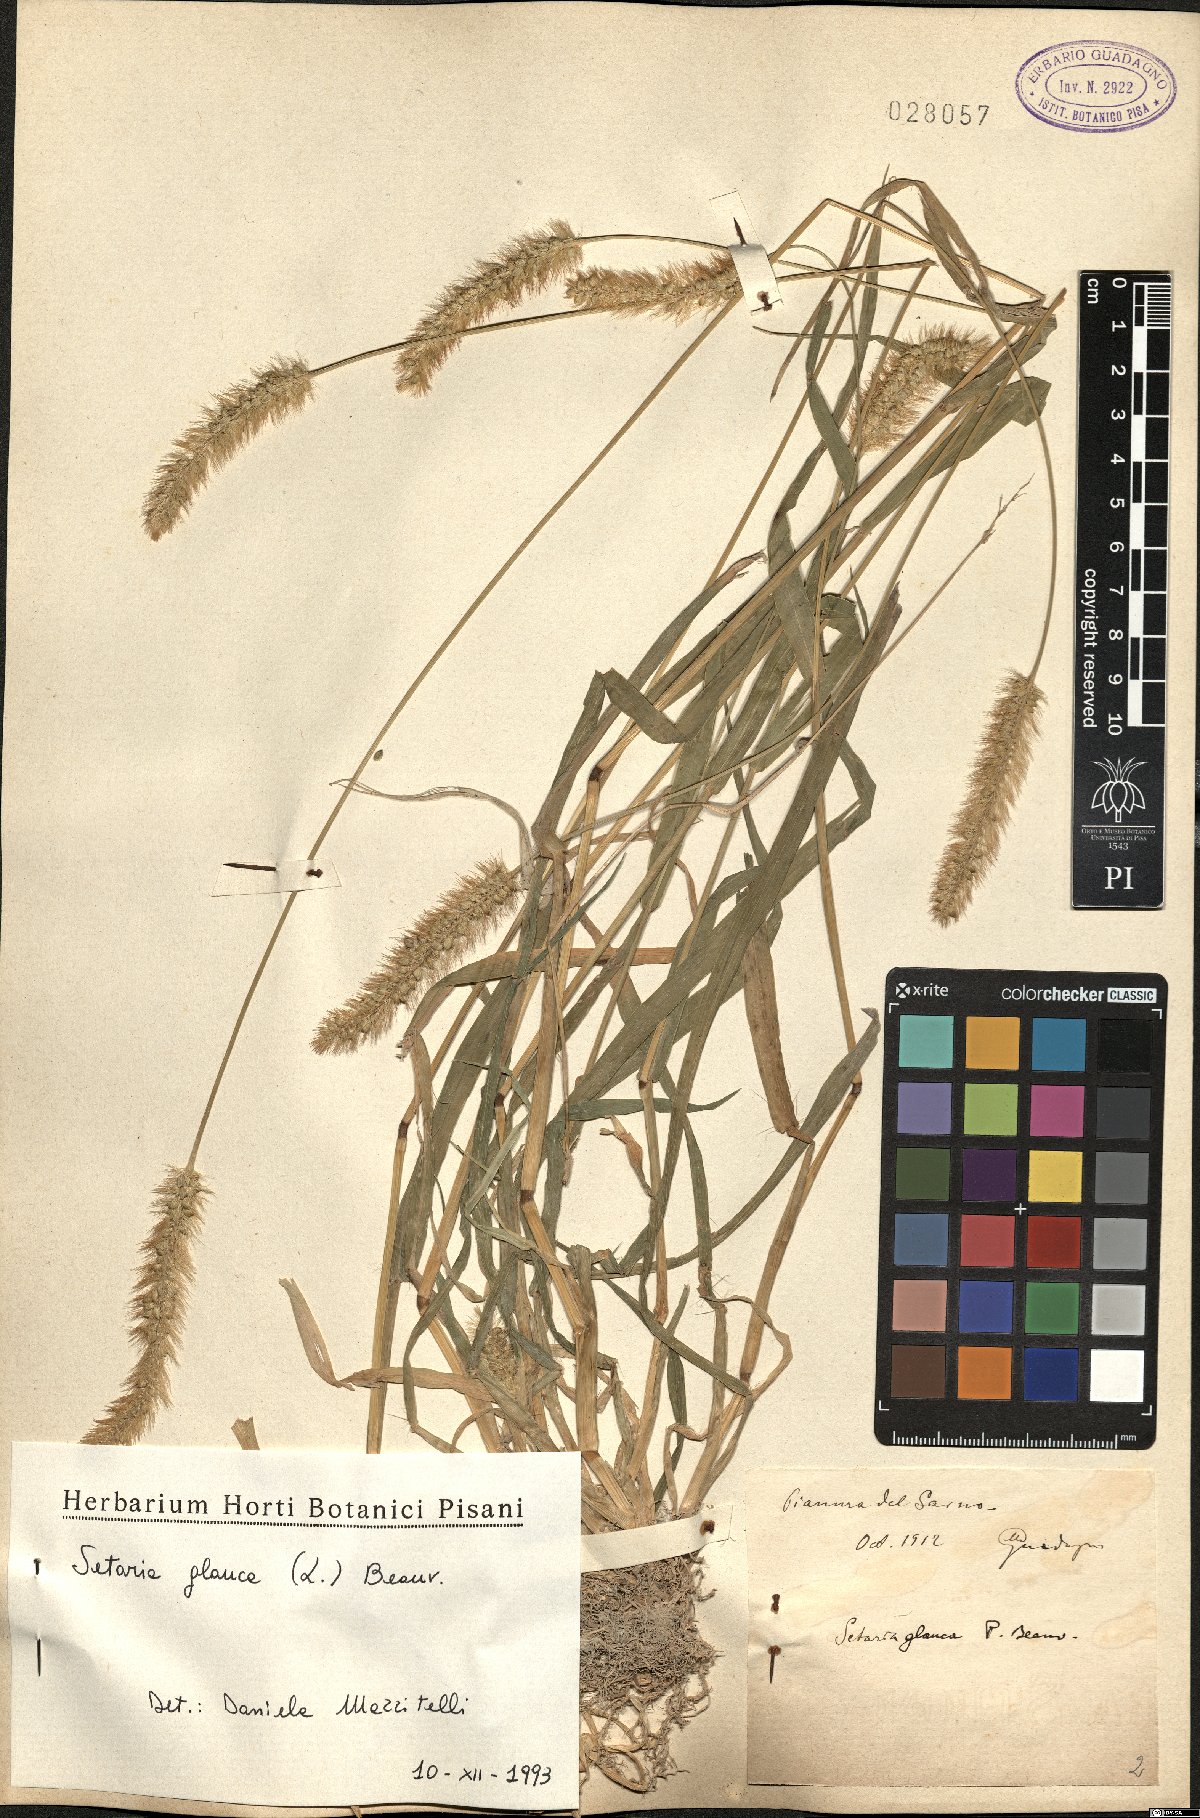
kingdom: Plantae
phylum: Tracheophyta
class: Liliopsida
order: Poales
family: Poaceae
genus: Cenchrus
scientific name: Cenchrus americanus
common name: Pearl millet
